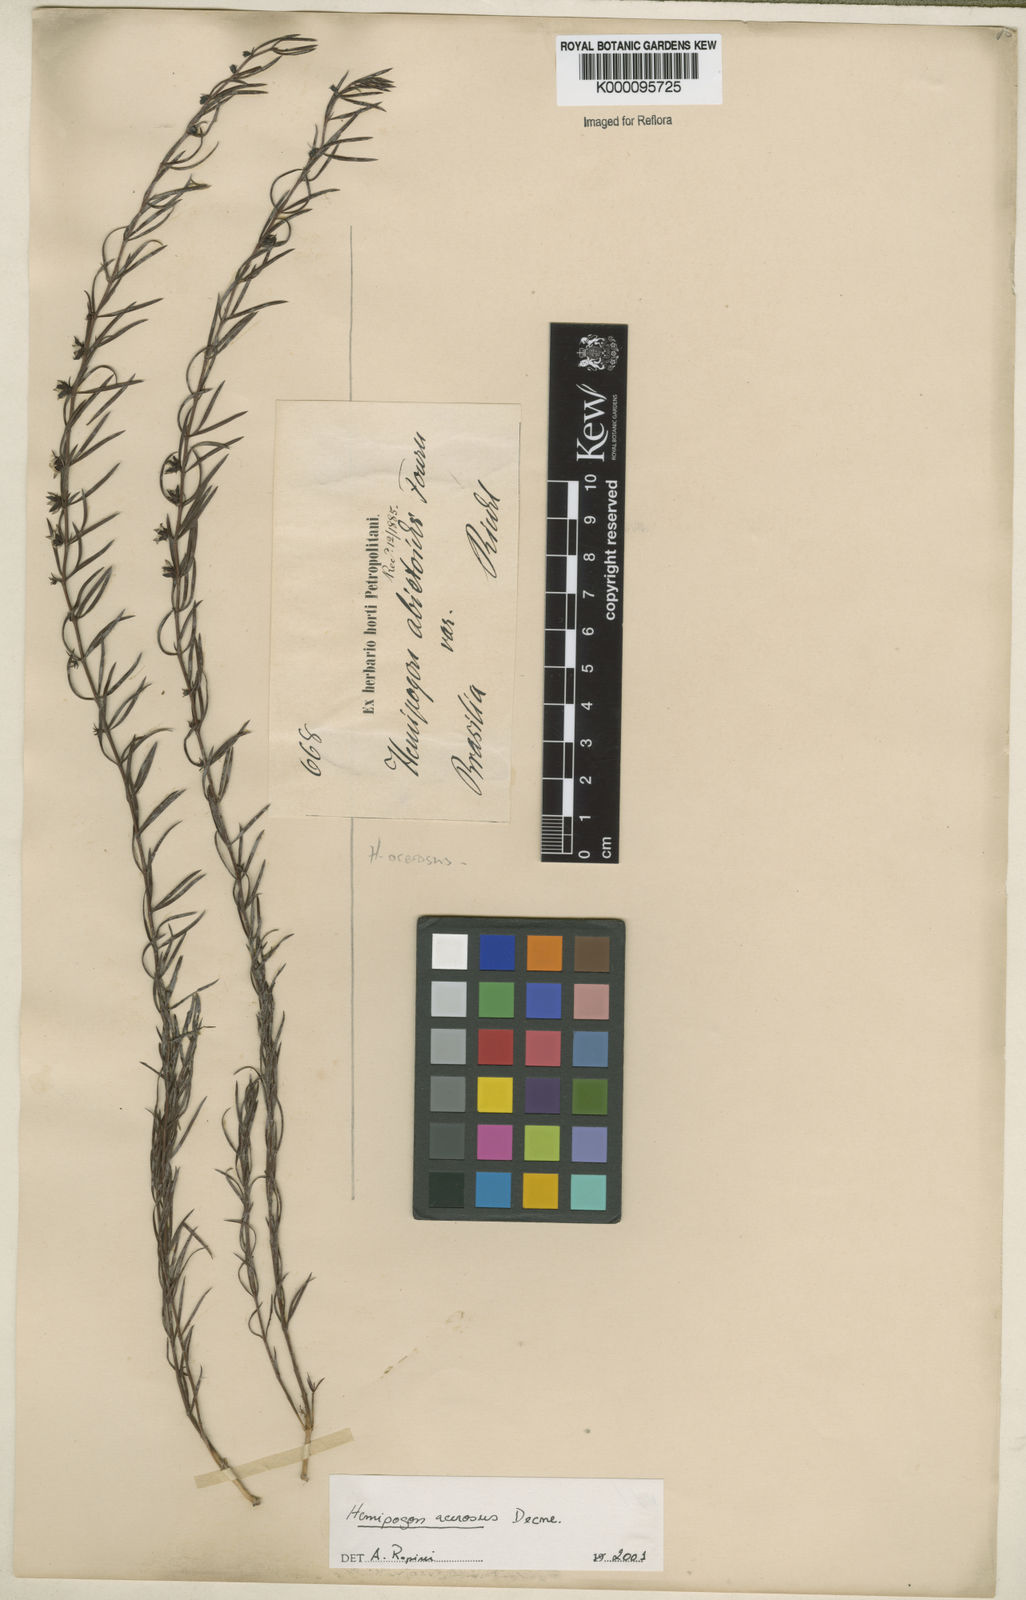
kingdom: Plantae
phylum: Tracheophyta
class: Magnoliopsida
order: Gentianales
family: Apocynaceae
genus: Hemipogon
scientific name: Hemipogon acerosus
